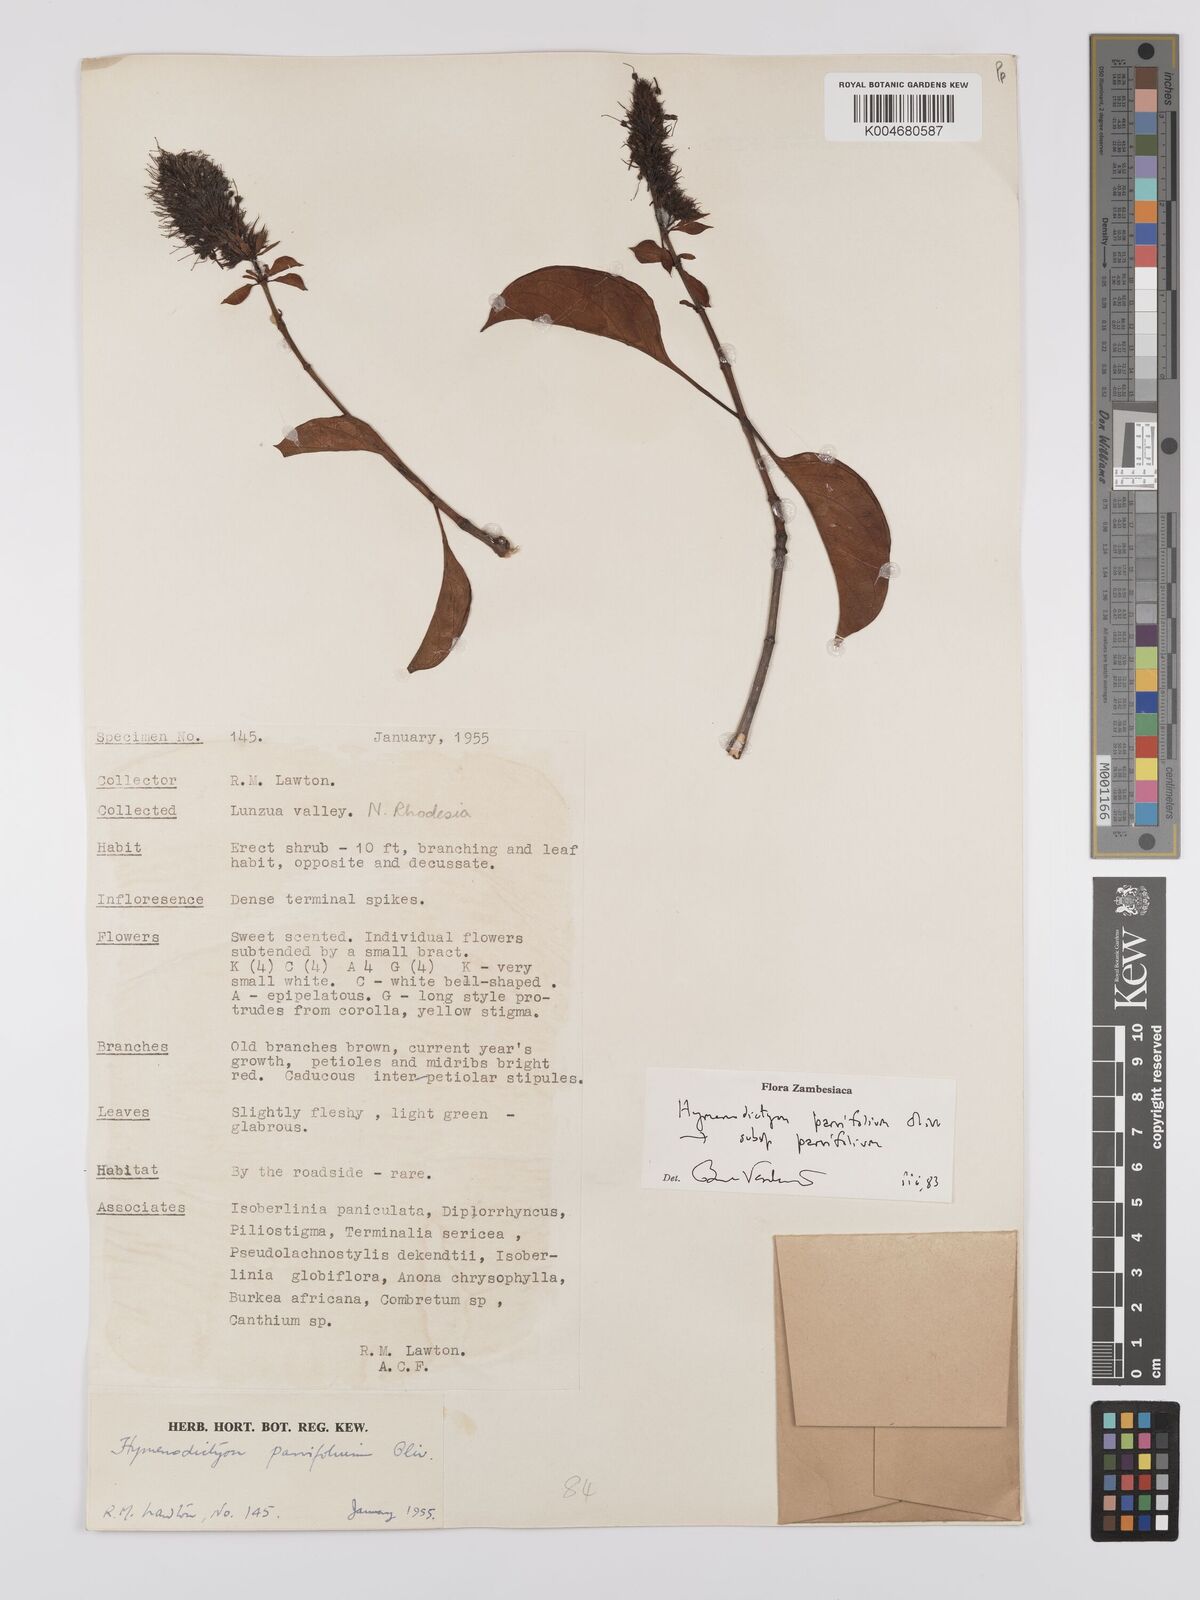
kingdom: Plantae
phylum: Tracheophyta
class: Magnoliopsida
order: Gentianales
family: Rubiaceae
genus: Hymenodictyon
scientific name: Hymenodictyon parvifolium
